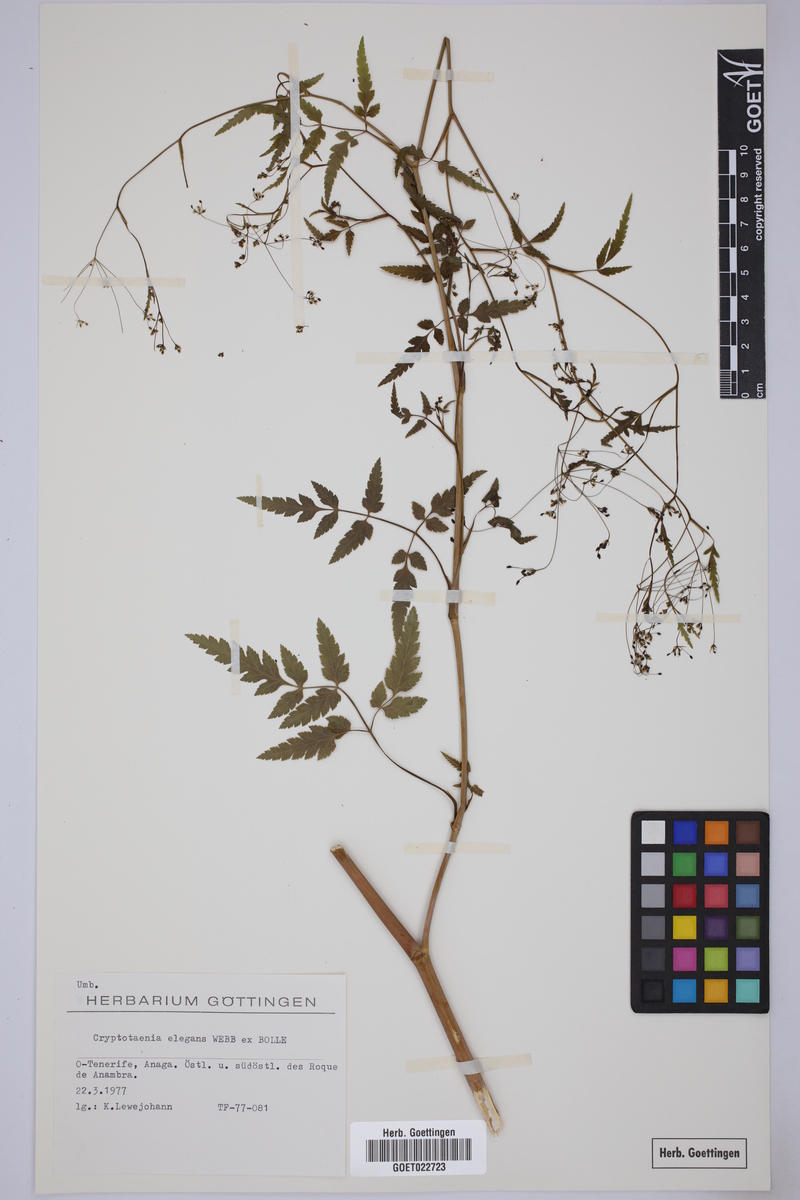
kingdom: Plantae
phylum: Tracheophyta
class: Magnoliopsida
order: Apiales
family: Apiaceae
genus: Daucus
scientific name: Daucus elegans
